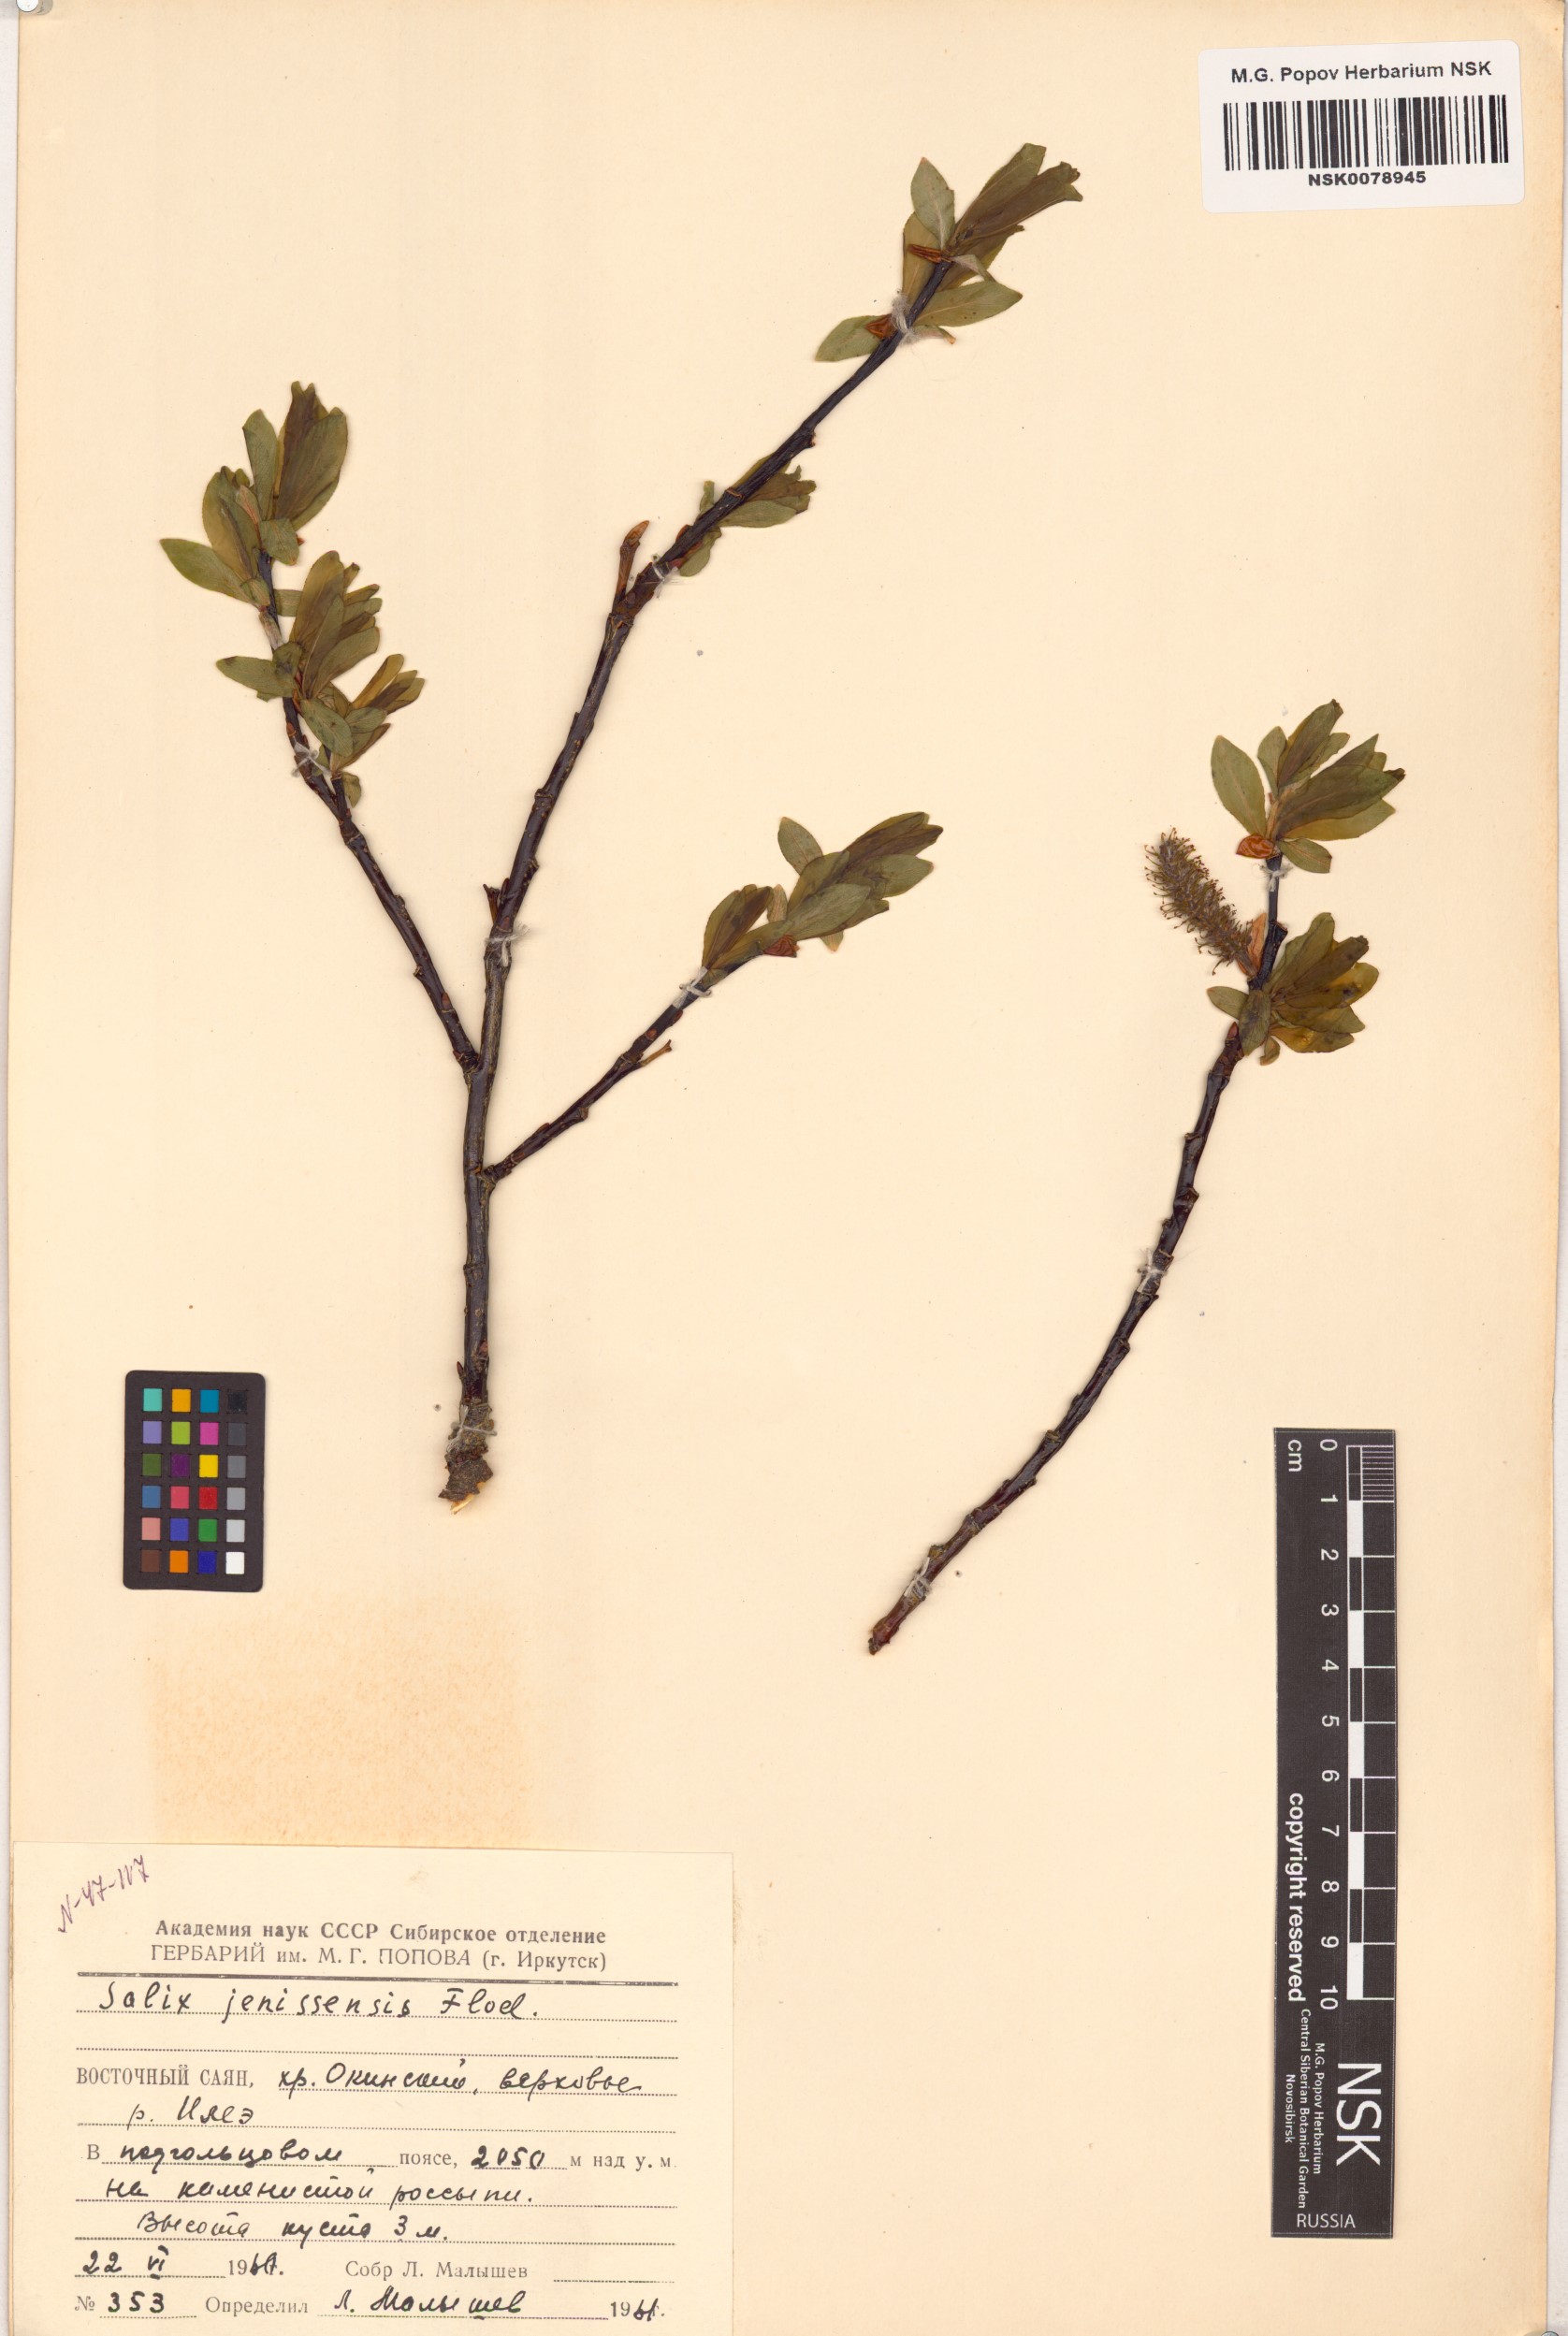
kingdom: Plantae
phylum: Tracheophyta
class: Magnoliopsida
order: Malpighiales
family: Salicaceae
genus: Salix
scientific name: Salix jenisseensis
